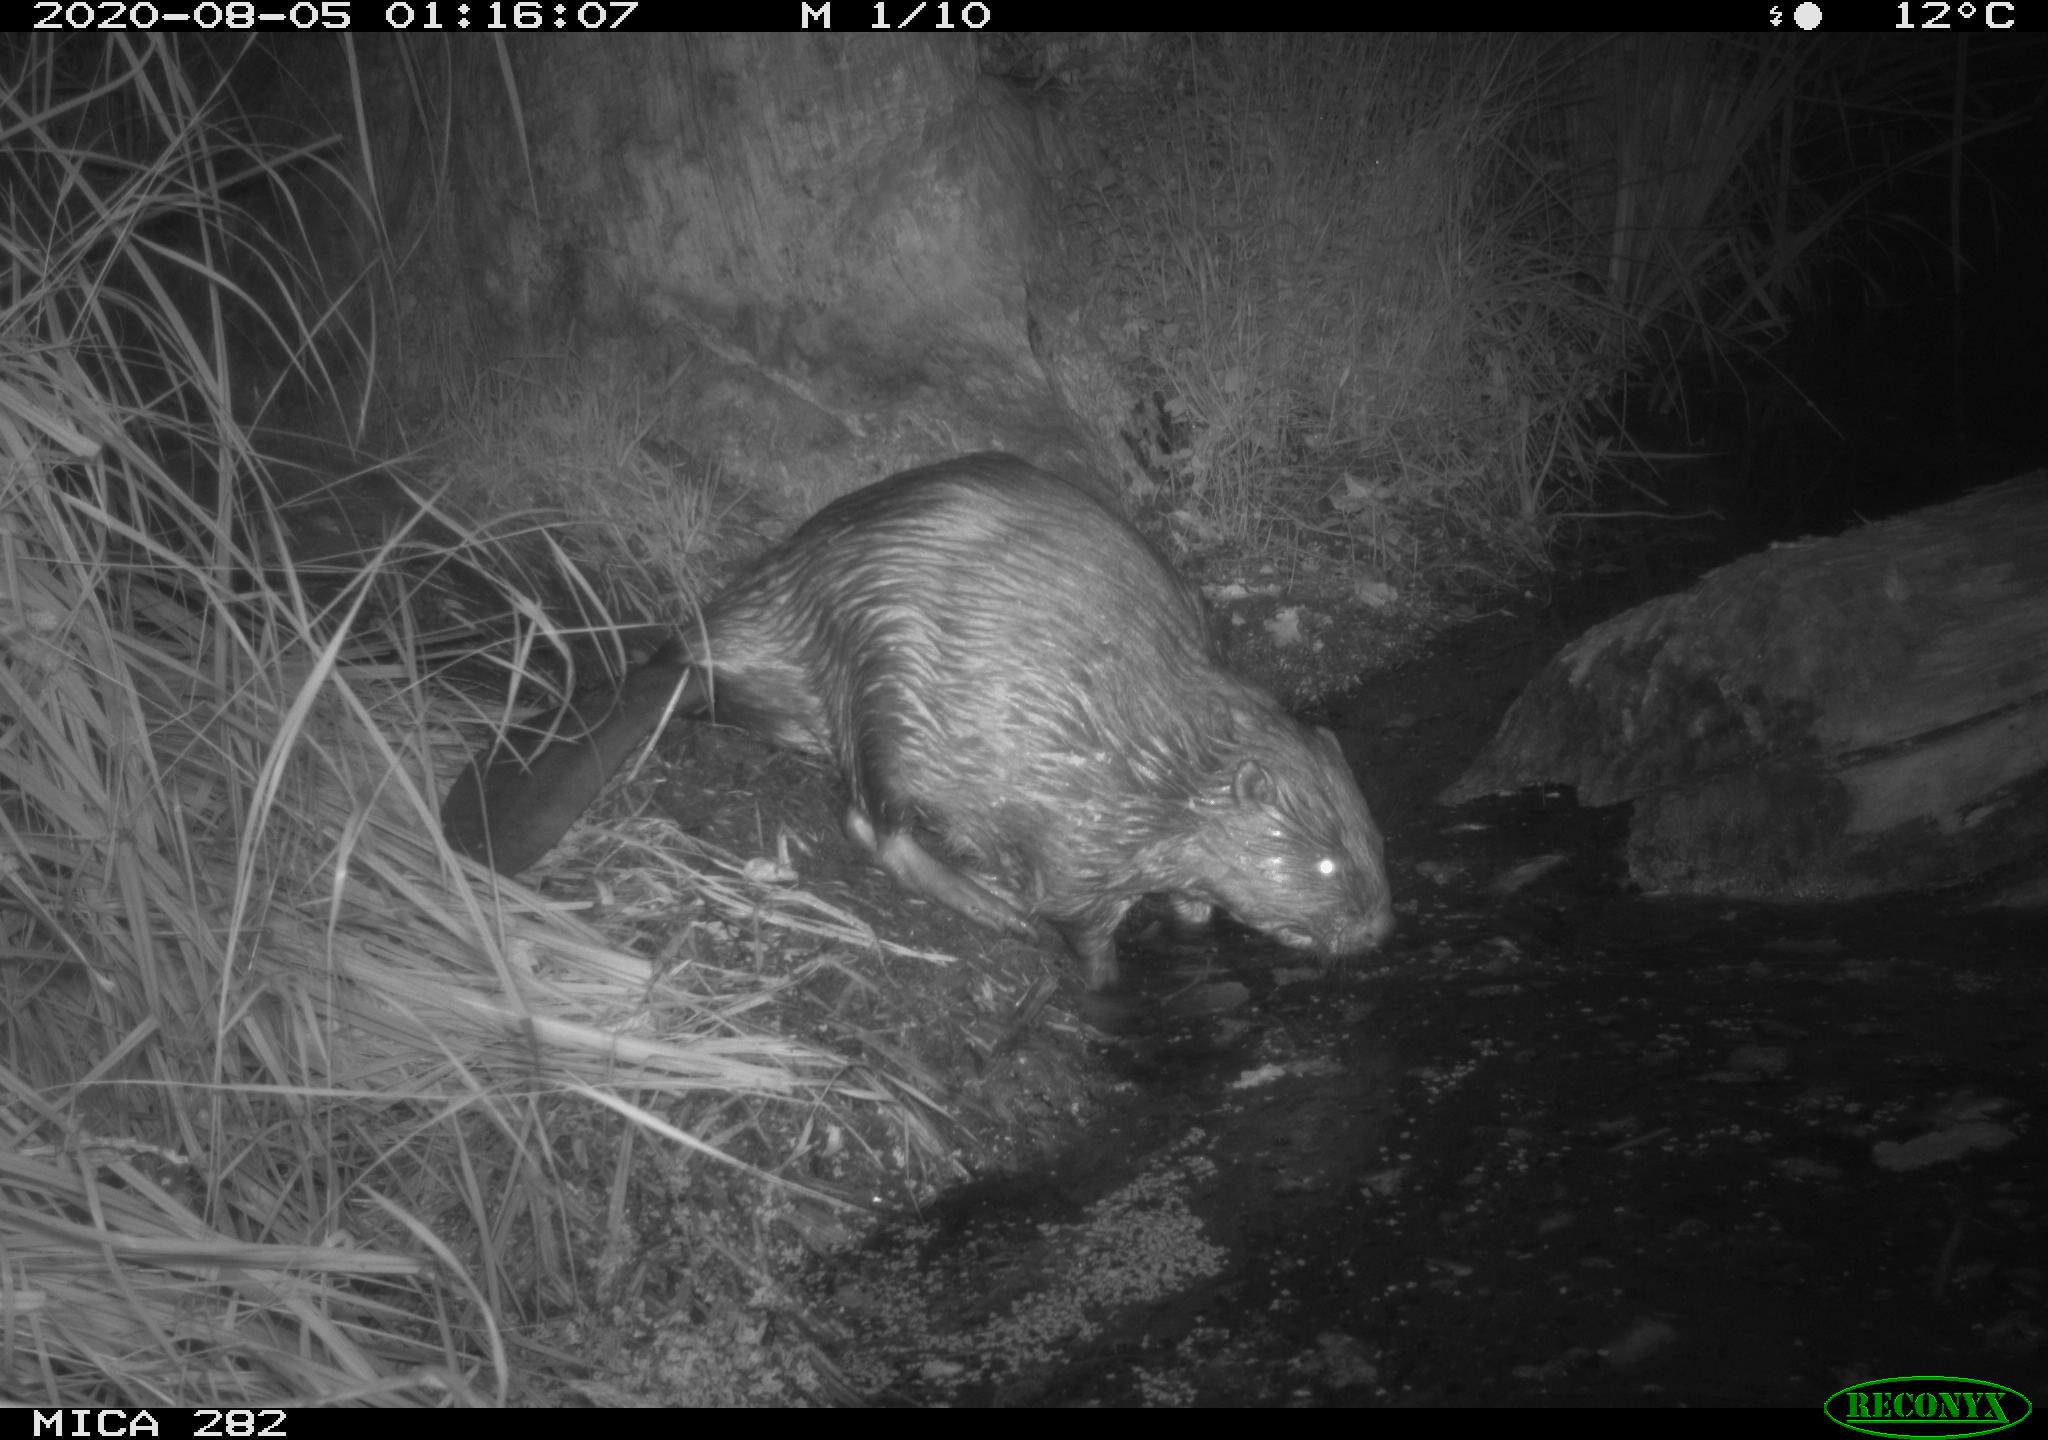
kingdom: Animalia
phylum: Chordata
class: Mammalia
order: Rodentia
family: Castoridae
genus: Castor
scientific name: Castor fiber
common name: Eurasian beaver
